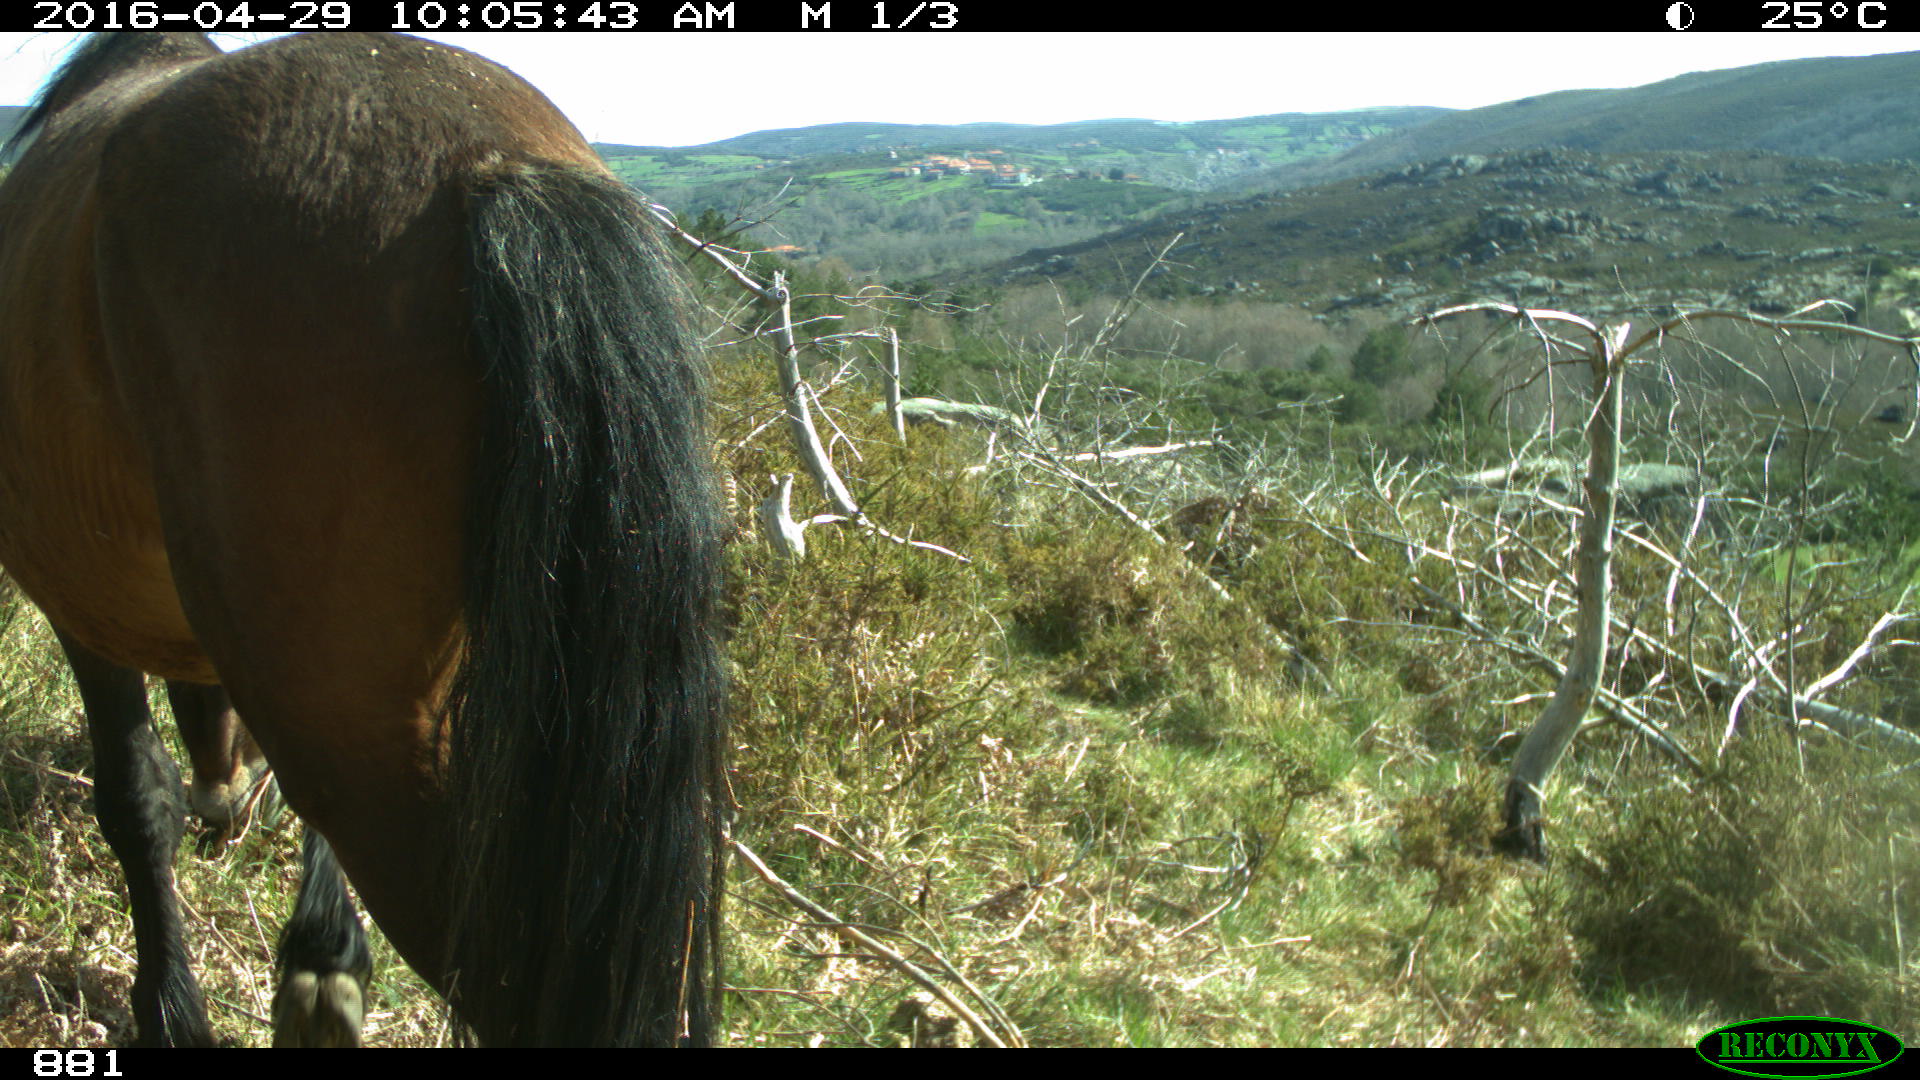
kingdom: Animalia
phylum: Chordata
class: Mammalia
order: Perissodactyla
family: Equidae
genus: Equus
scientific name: Equus caballus
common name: Horse
